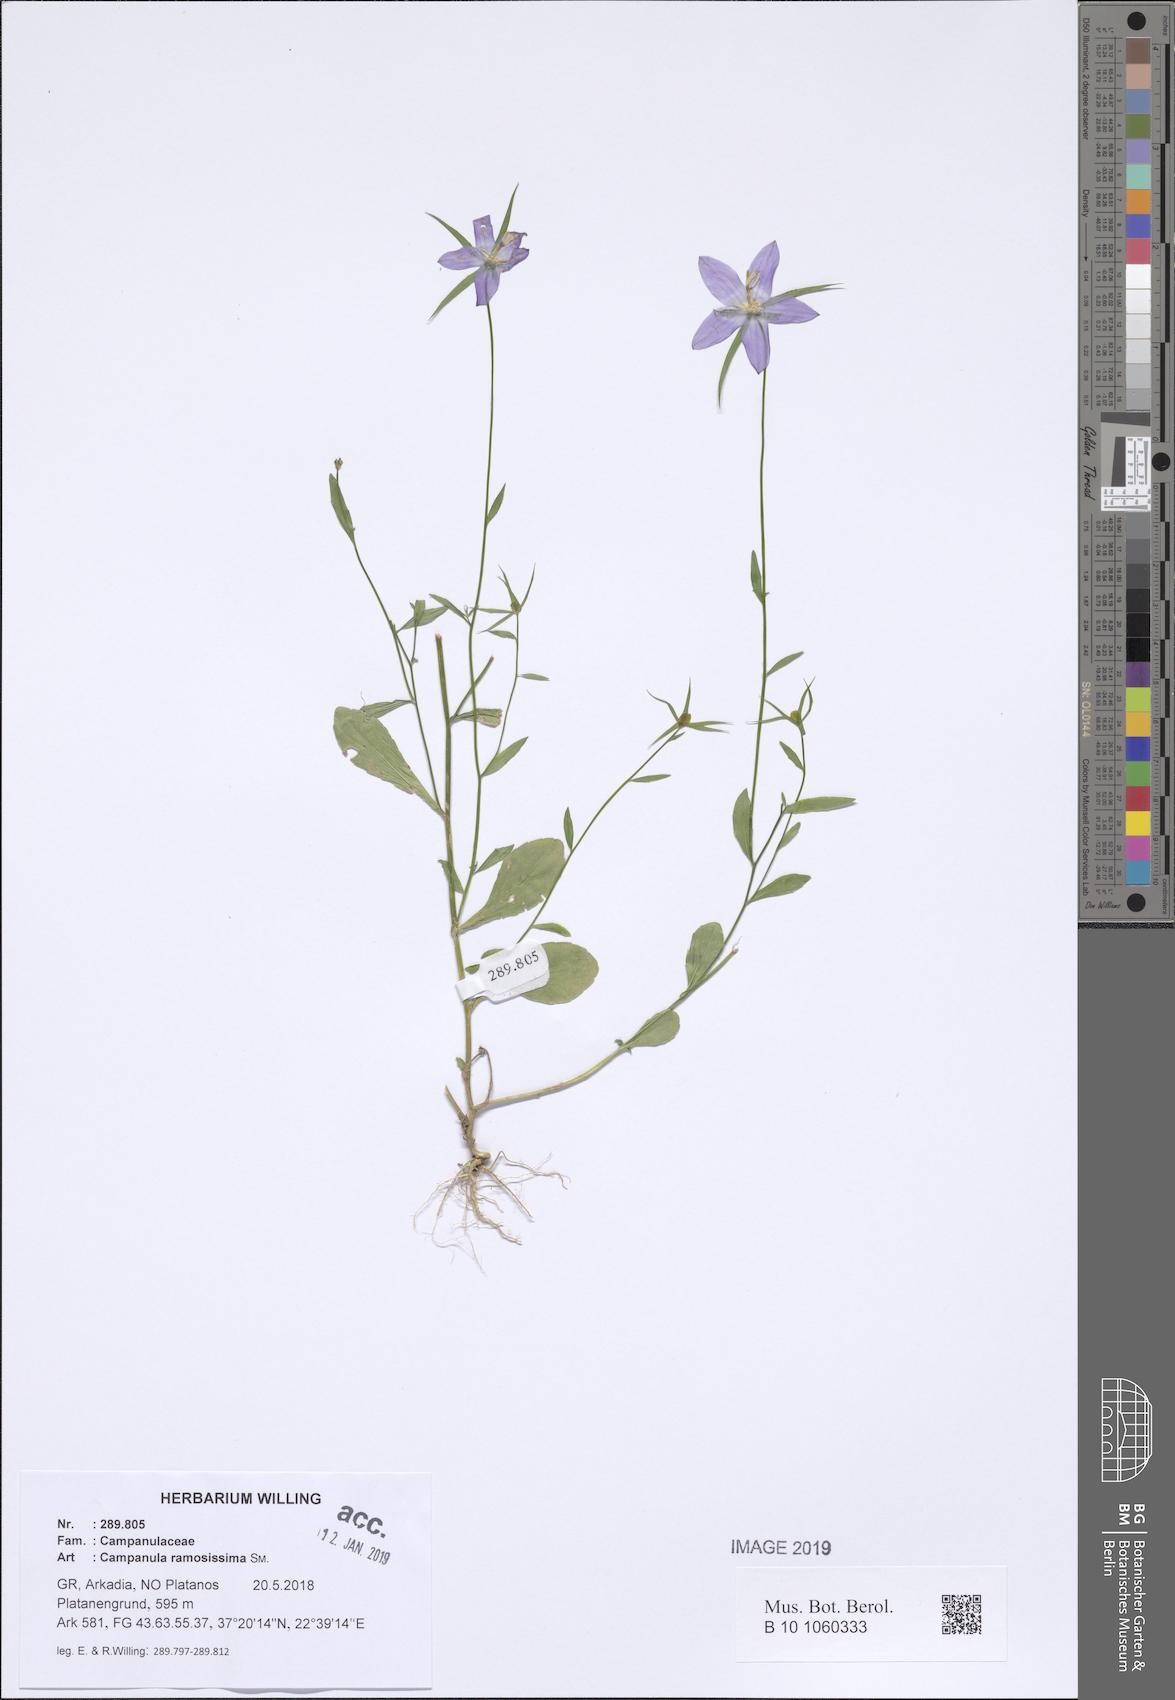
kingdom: Plantae
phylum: Tracheophyta
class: Magnoliopsida
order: Asterales
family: Campanulaceae
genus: Campanula
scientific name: Campanula ramosissima
